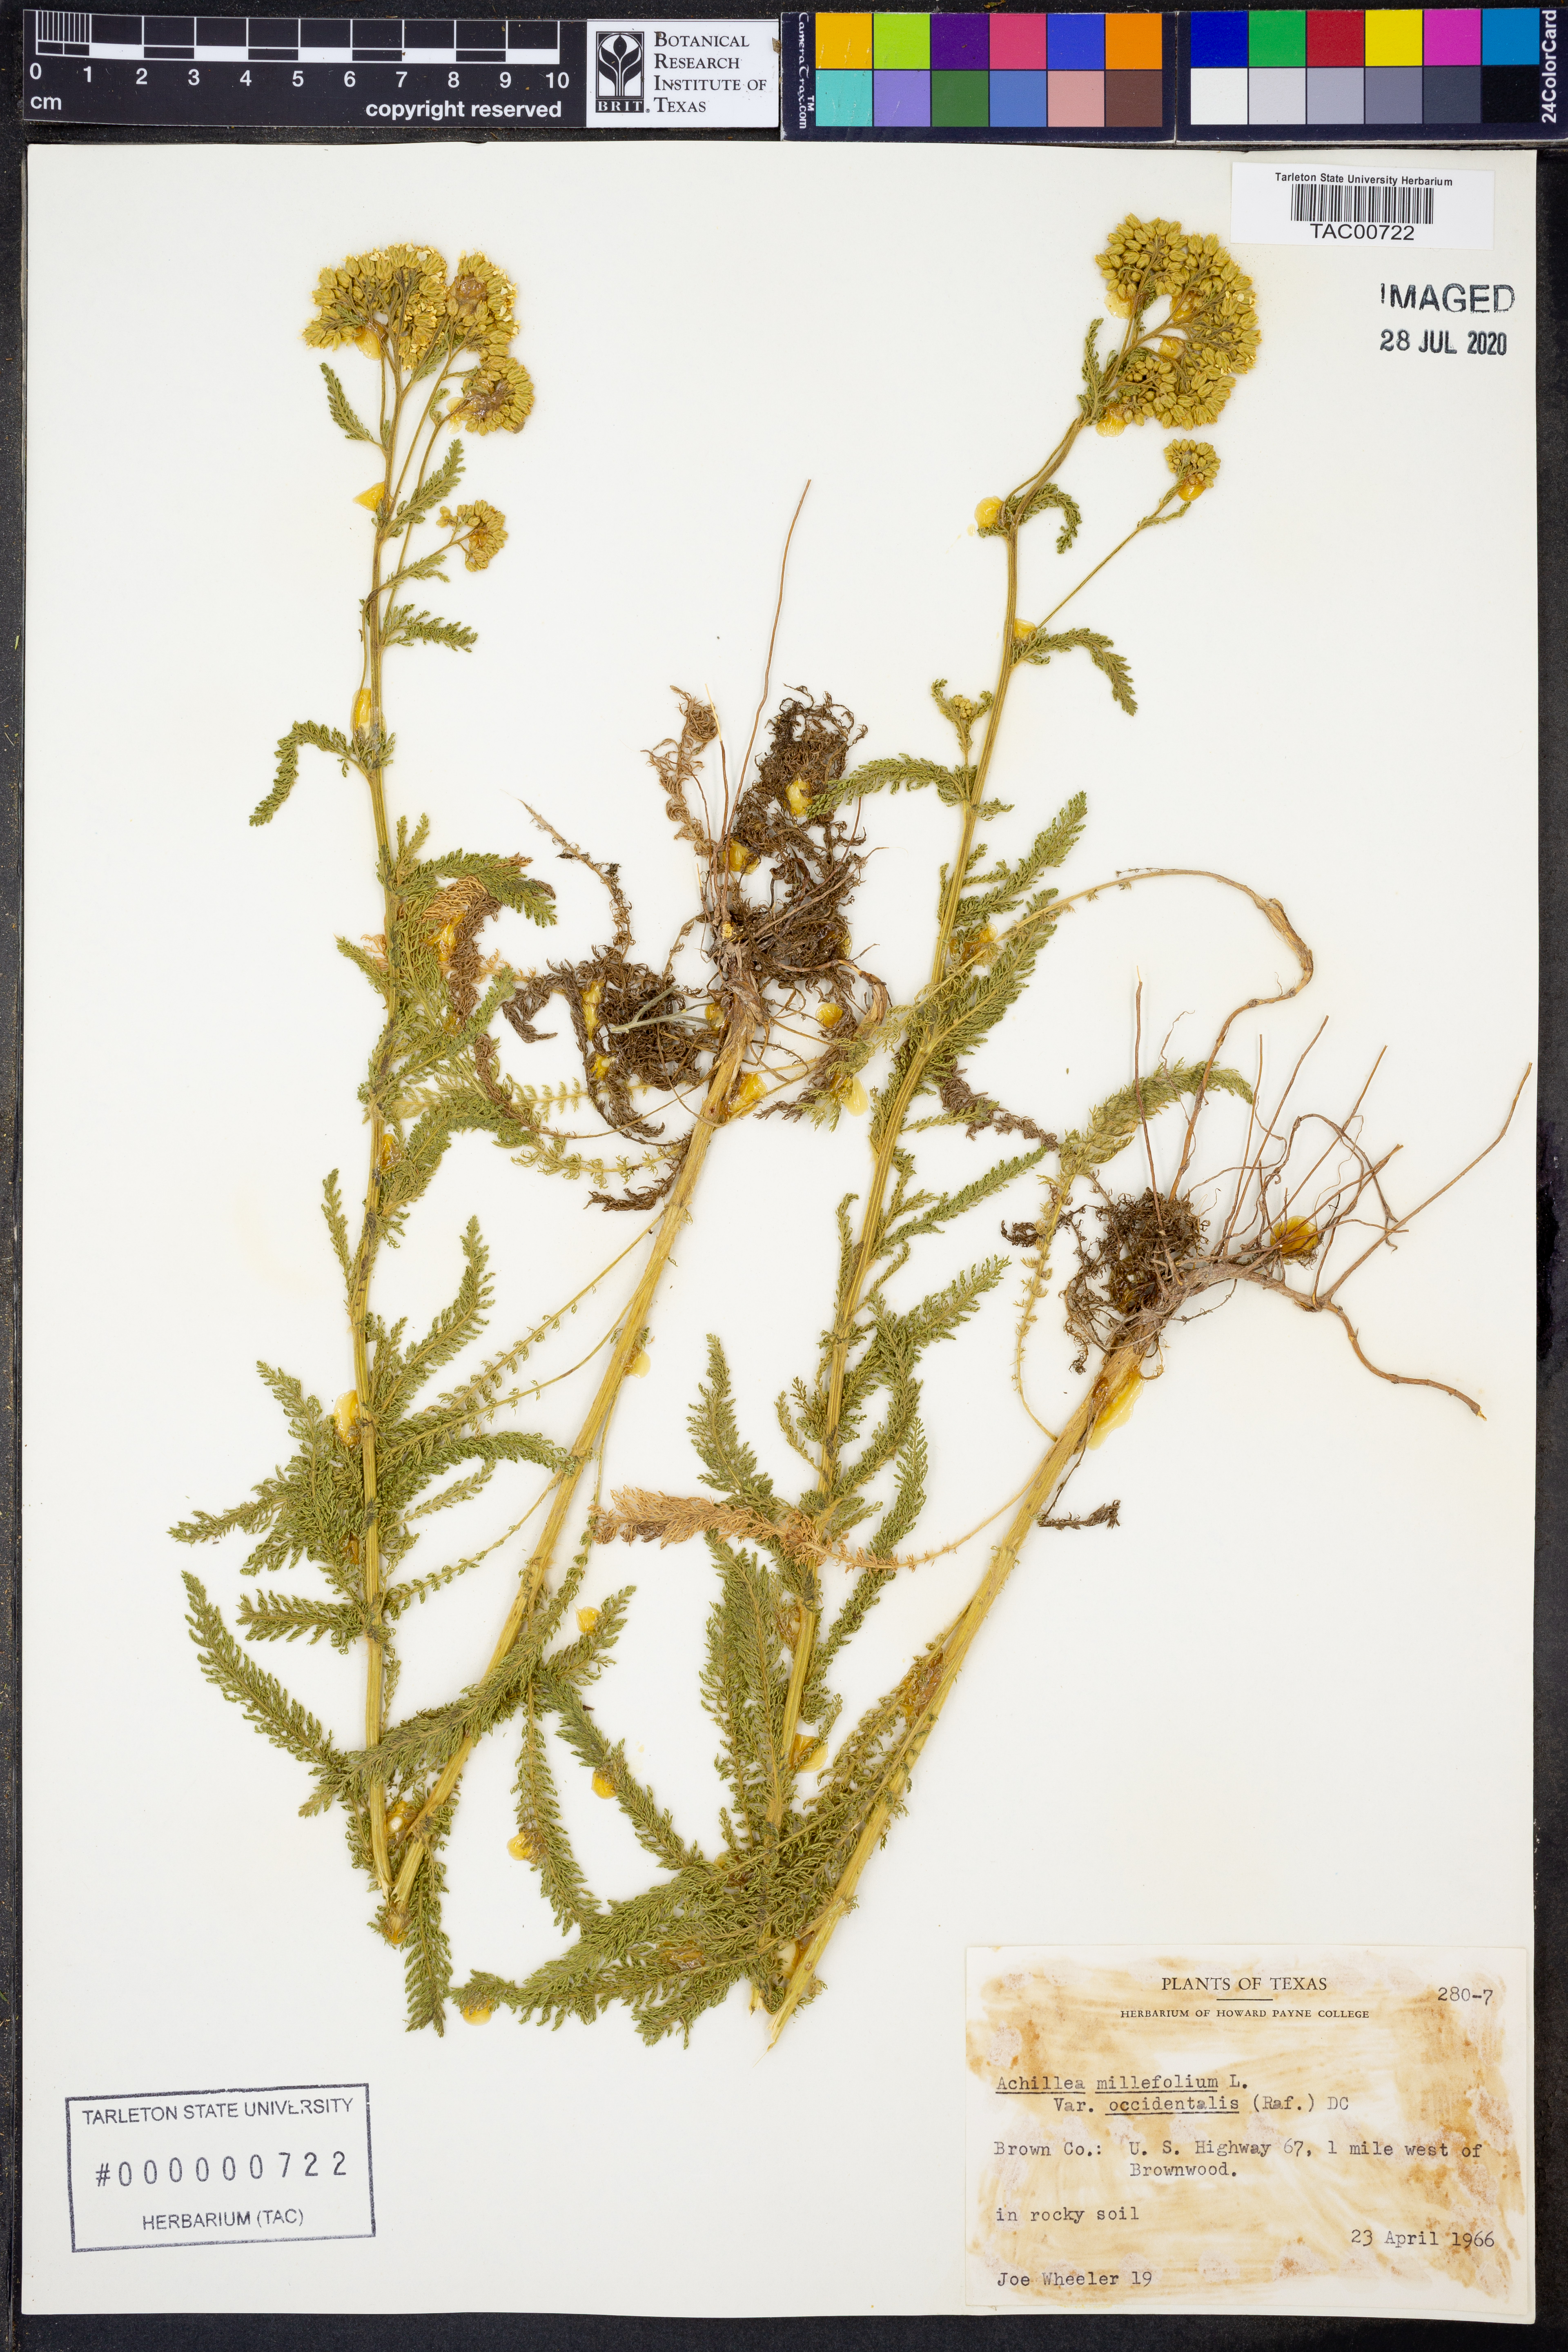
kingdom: Plantae
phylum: Tracheophyta
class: Magnoliopsida
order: Asterales
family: Asteraceae
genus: Achillea
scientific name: Achillea millefolium
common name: Yarrow
